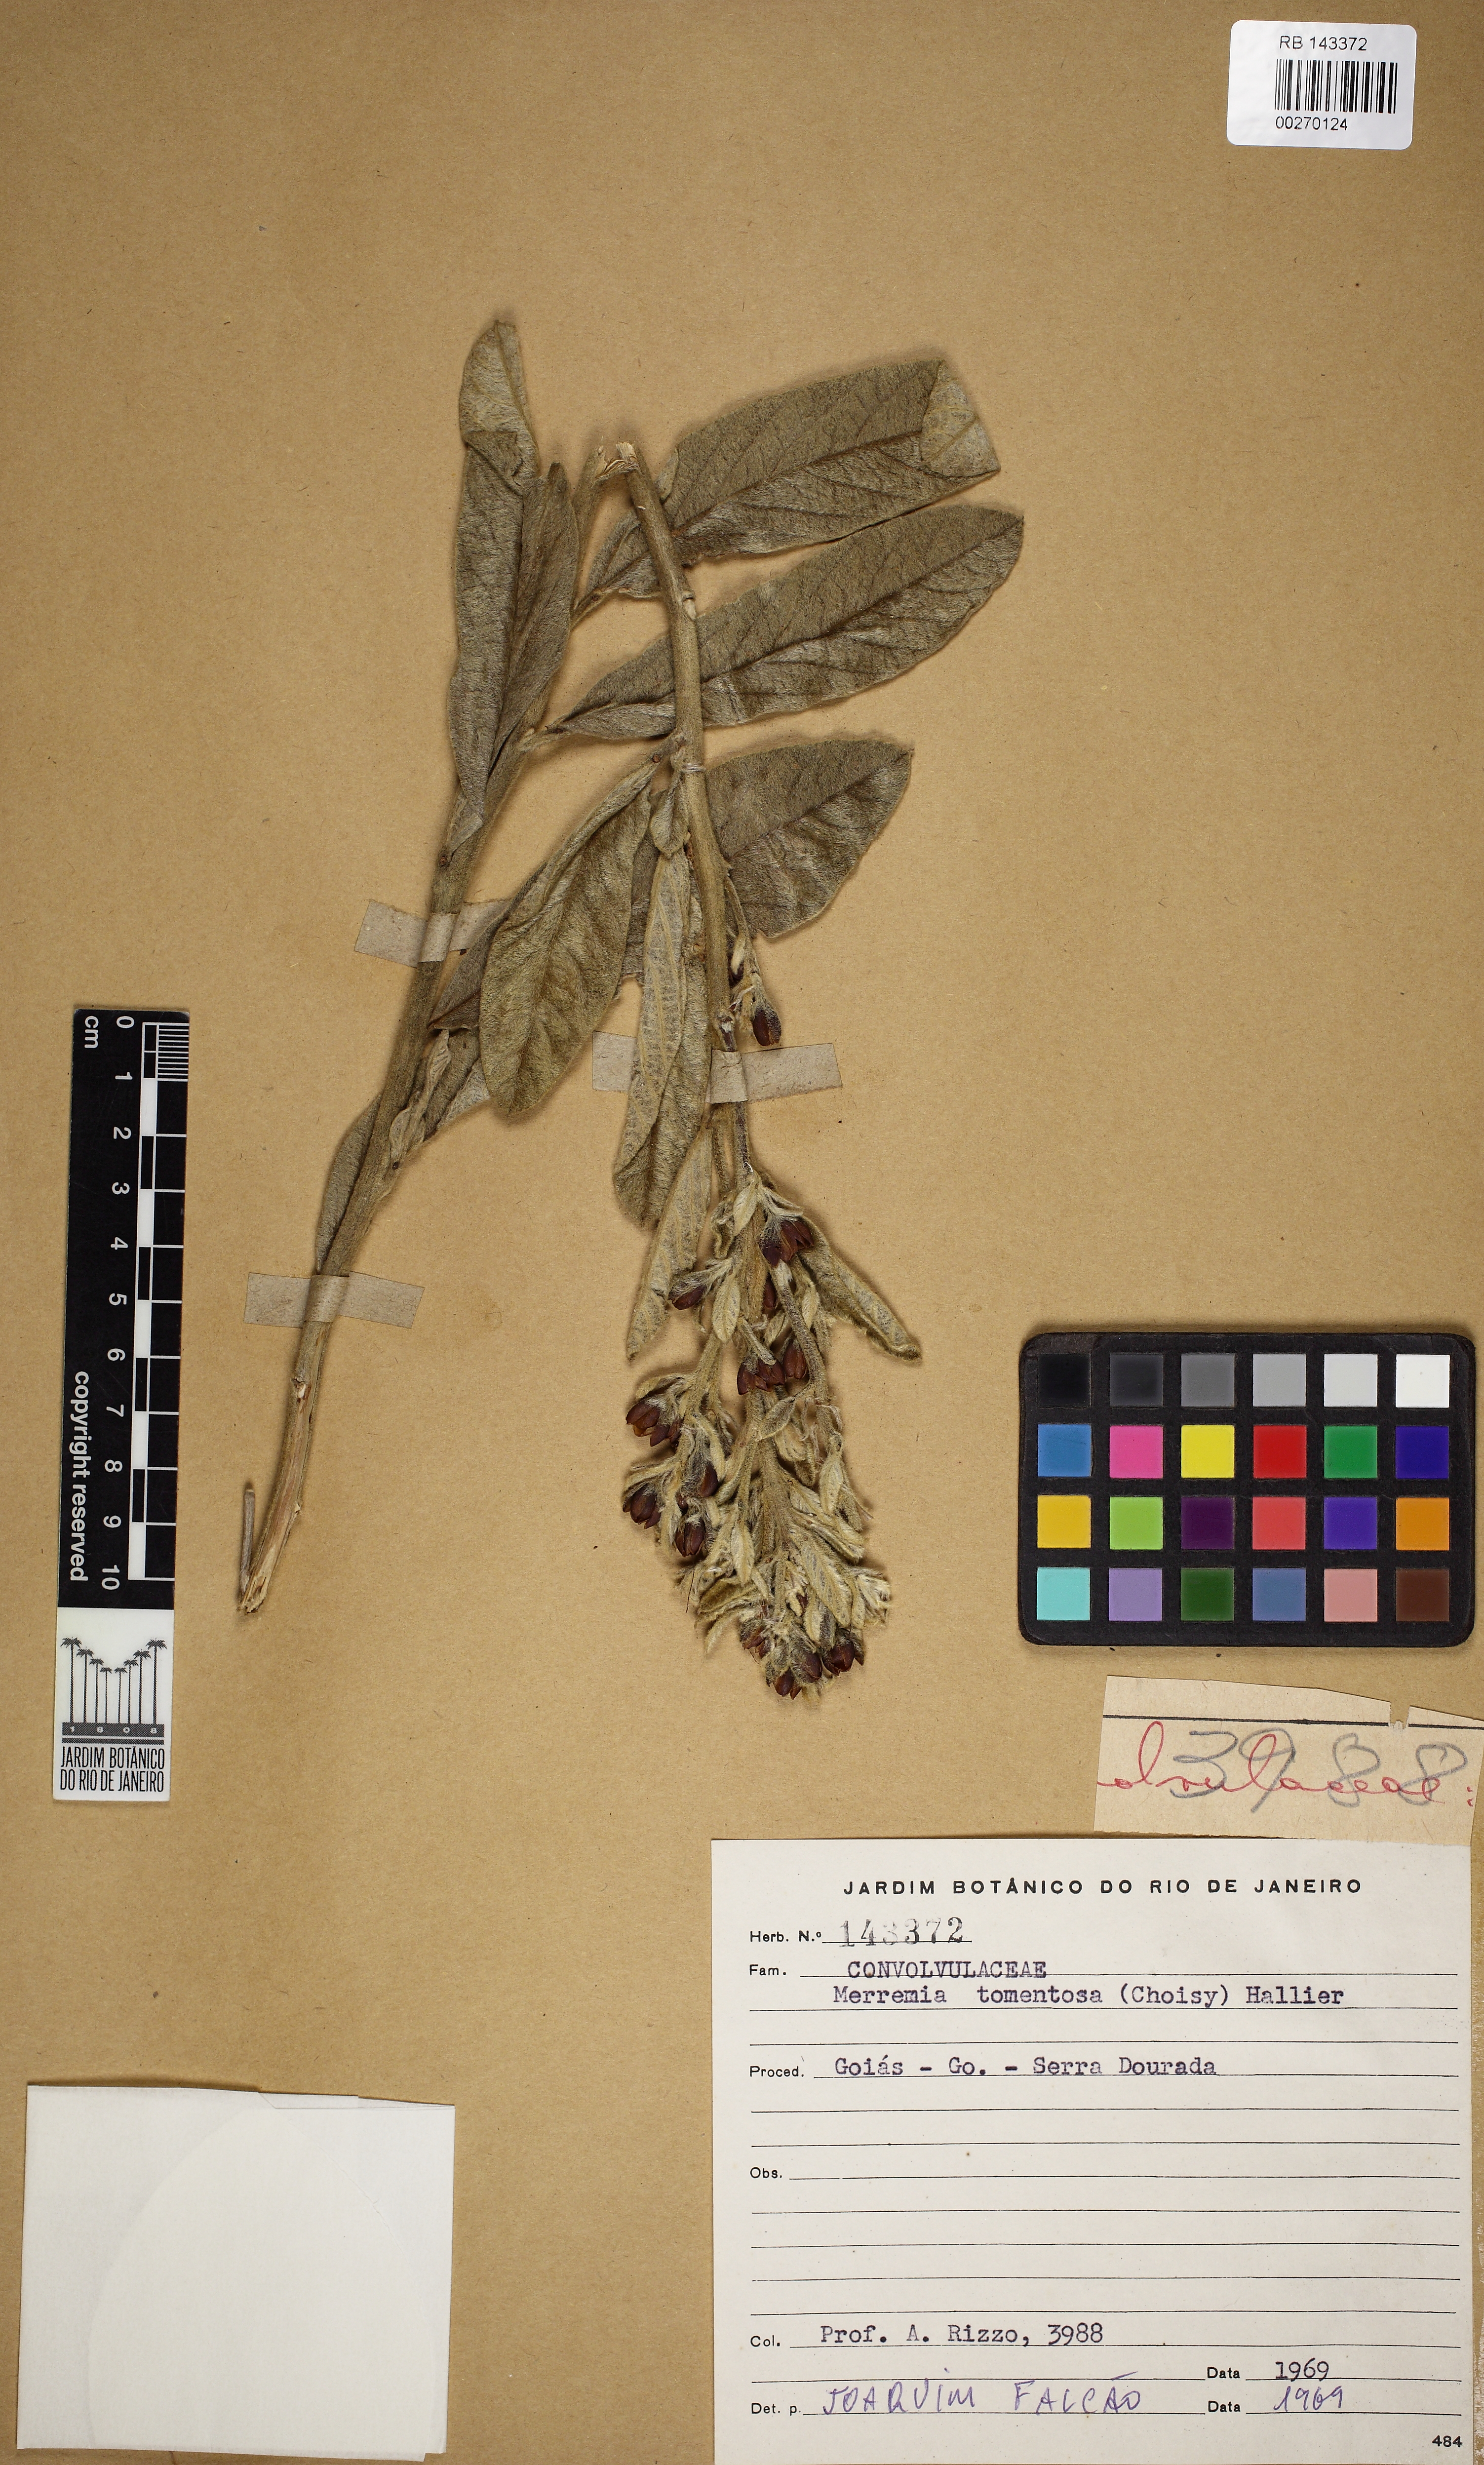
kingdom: Plantae
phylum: Tracheophyta
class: Magnoliopsida
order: Solanales
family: Convolvulaceae
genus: Ipomoea
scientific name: Ipomoea argentea
